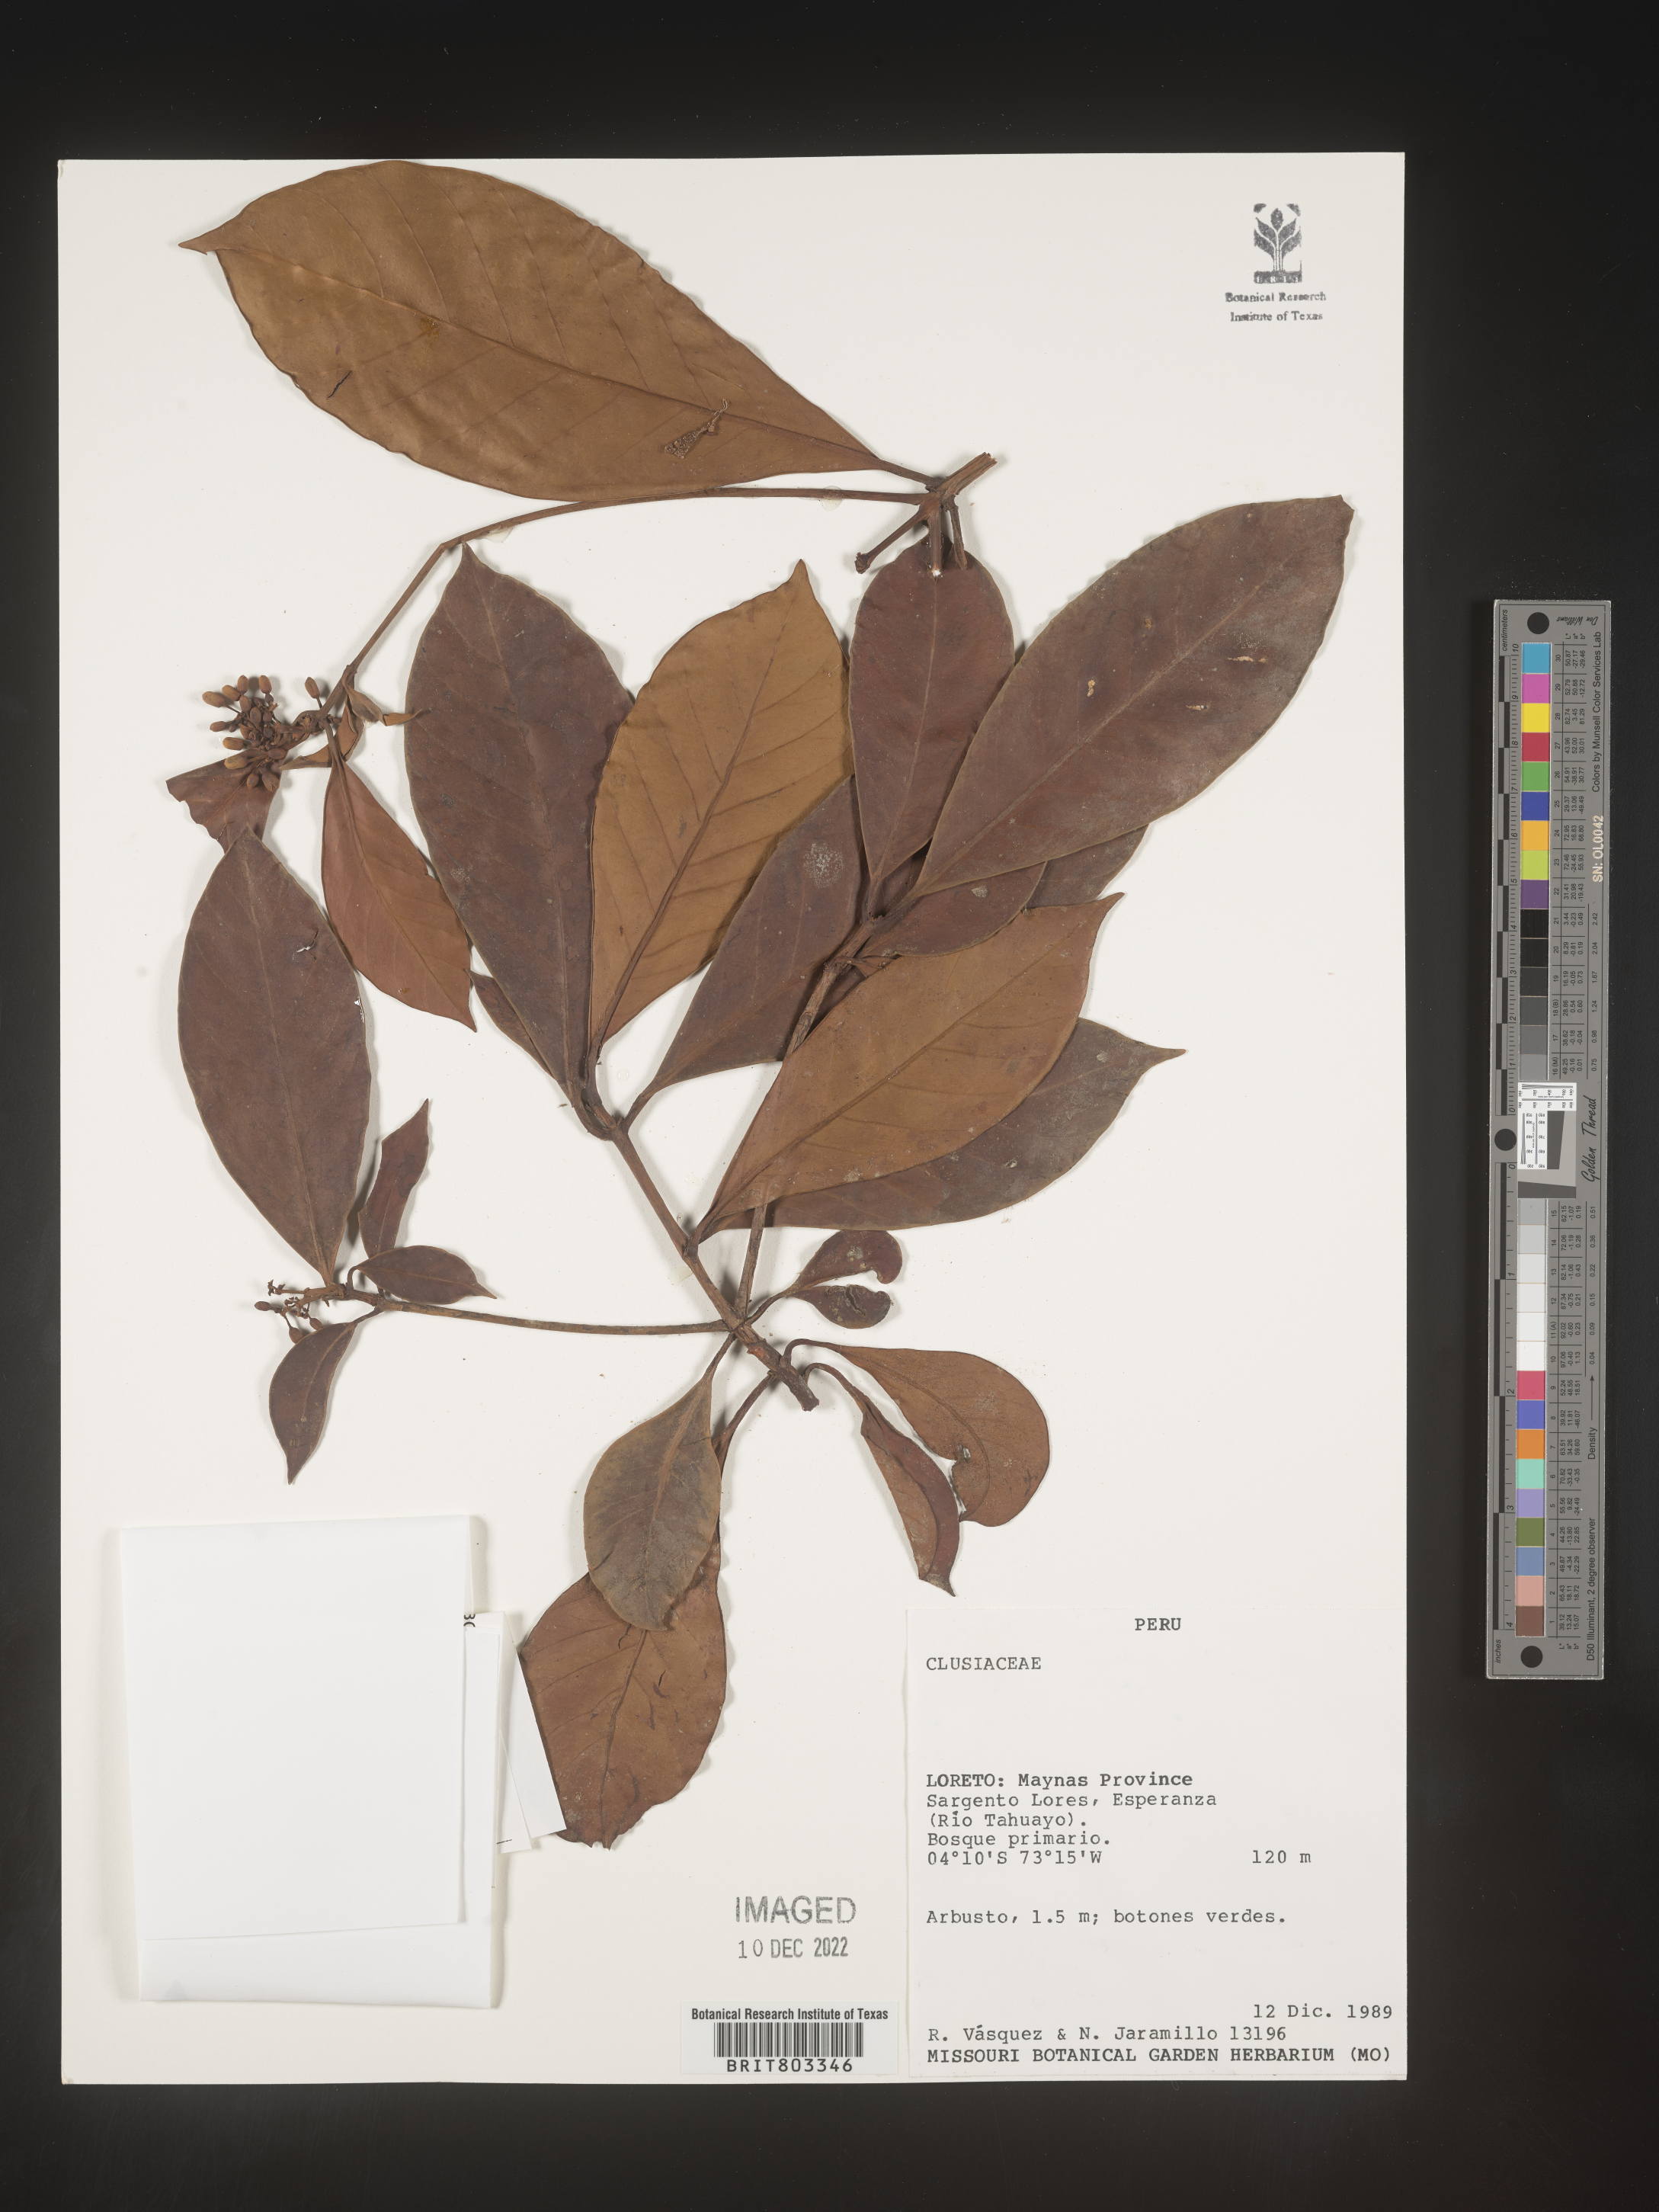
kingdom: Plantae
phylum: Tracheophyta
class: Magnoliopsida
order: Malpighiales
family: Clusiaceae
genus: Tovomita
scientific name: Tovomita
